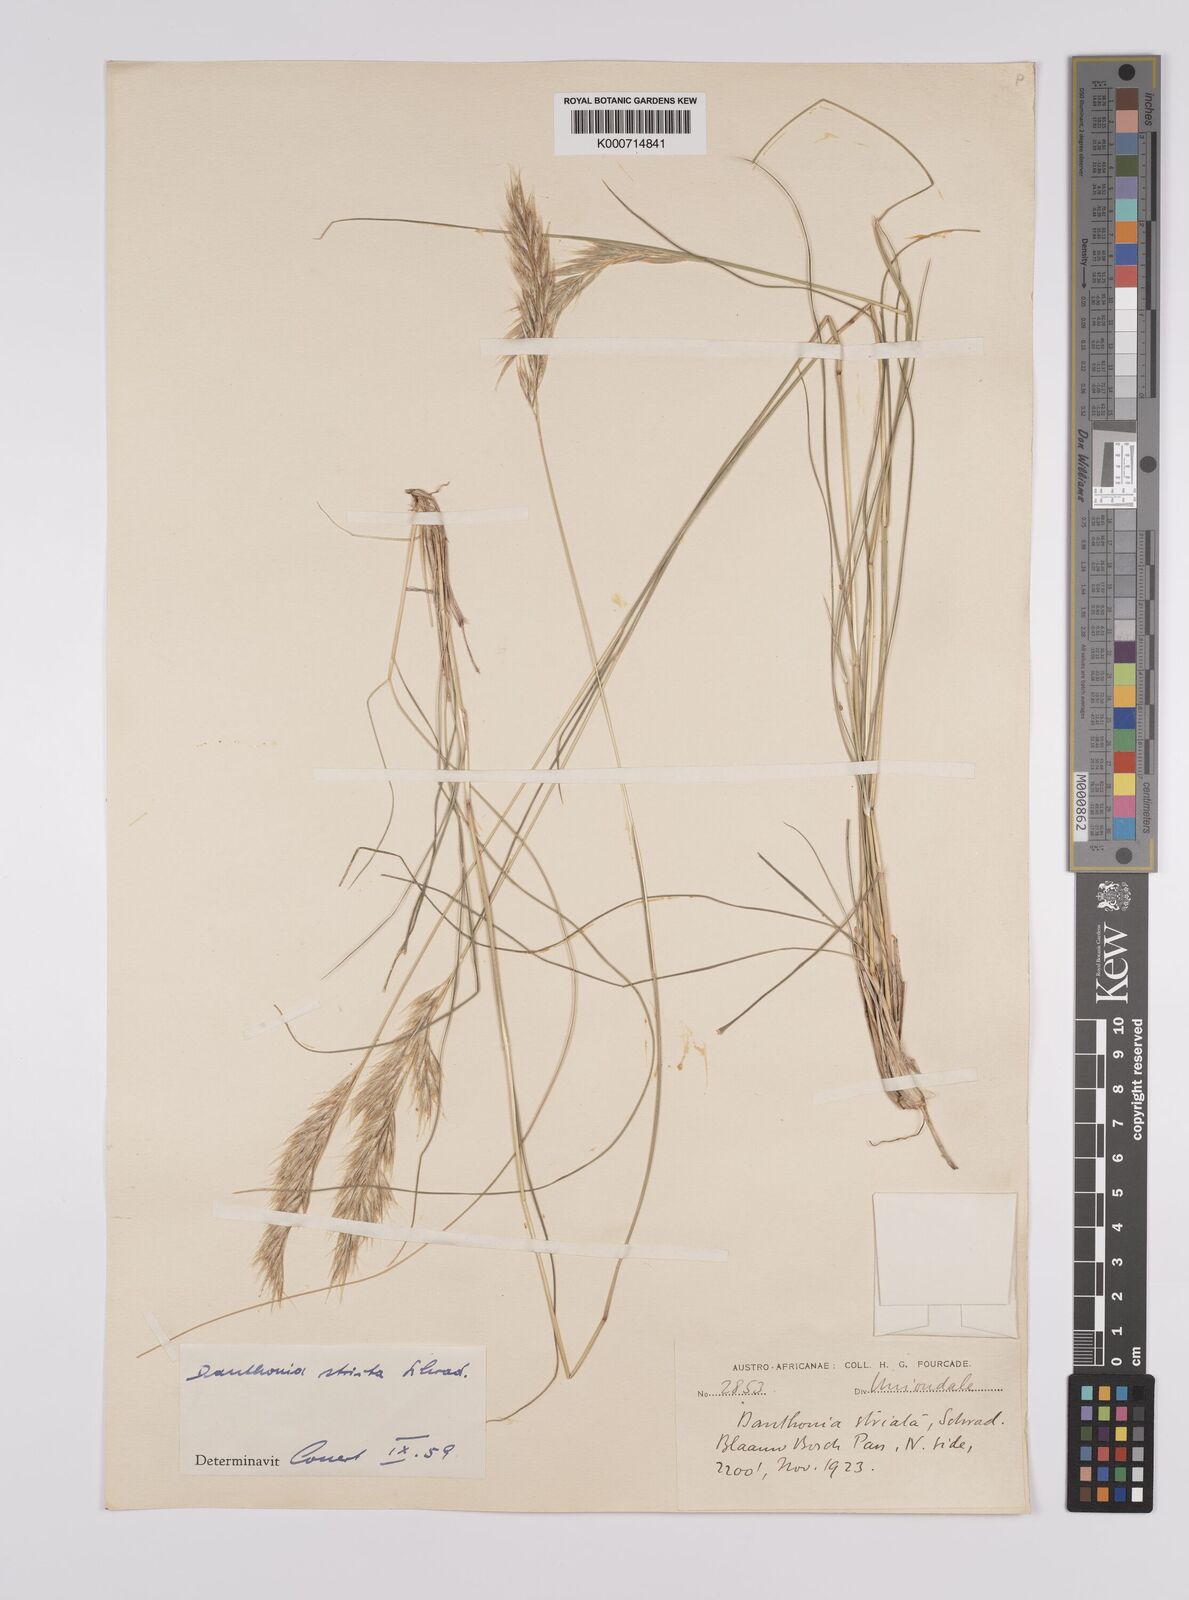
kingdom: Plantae
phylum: Tracheophyta
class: Liliopsida
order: Poales
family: Poaceae
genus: Rytidosperma
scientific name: Rytidosperma
